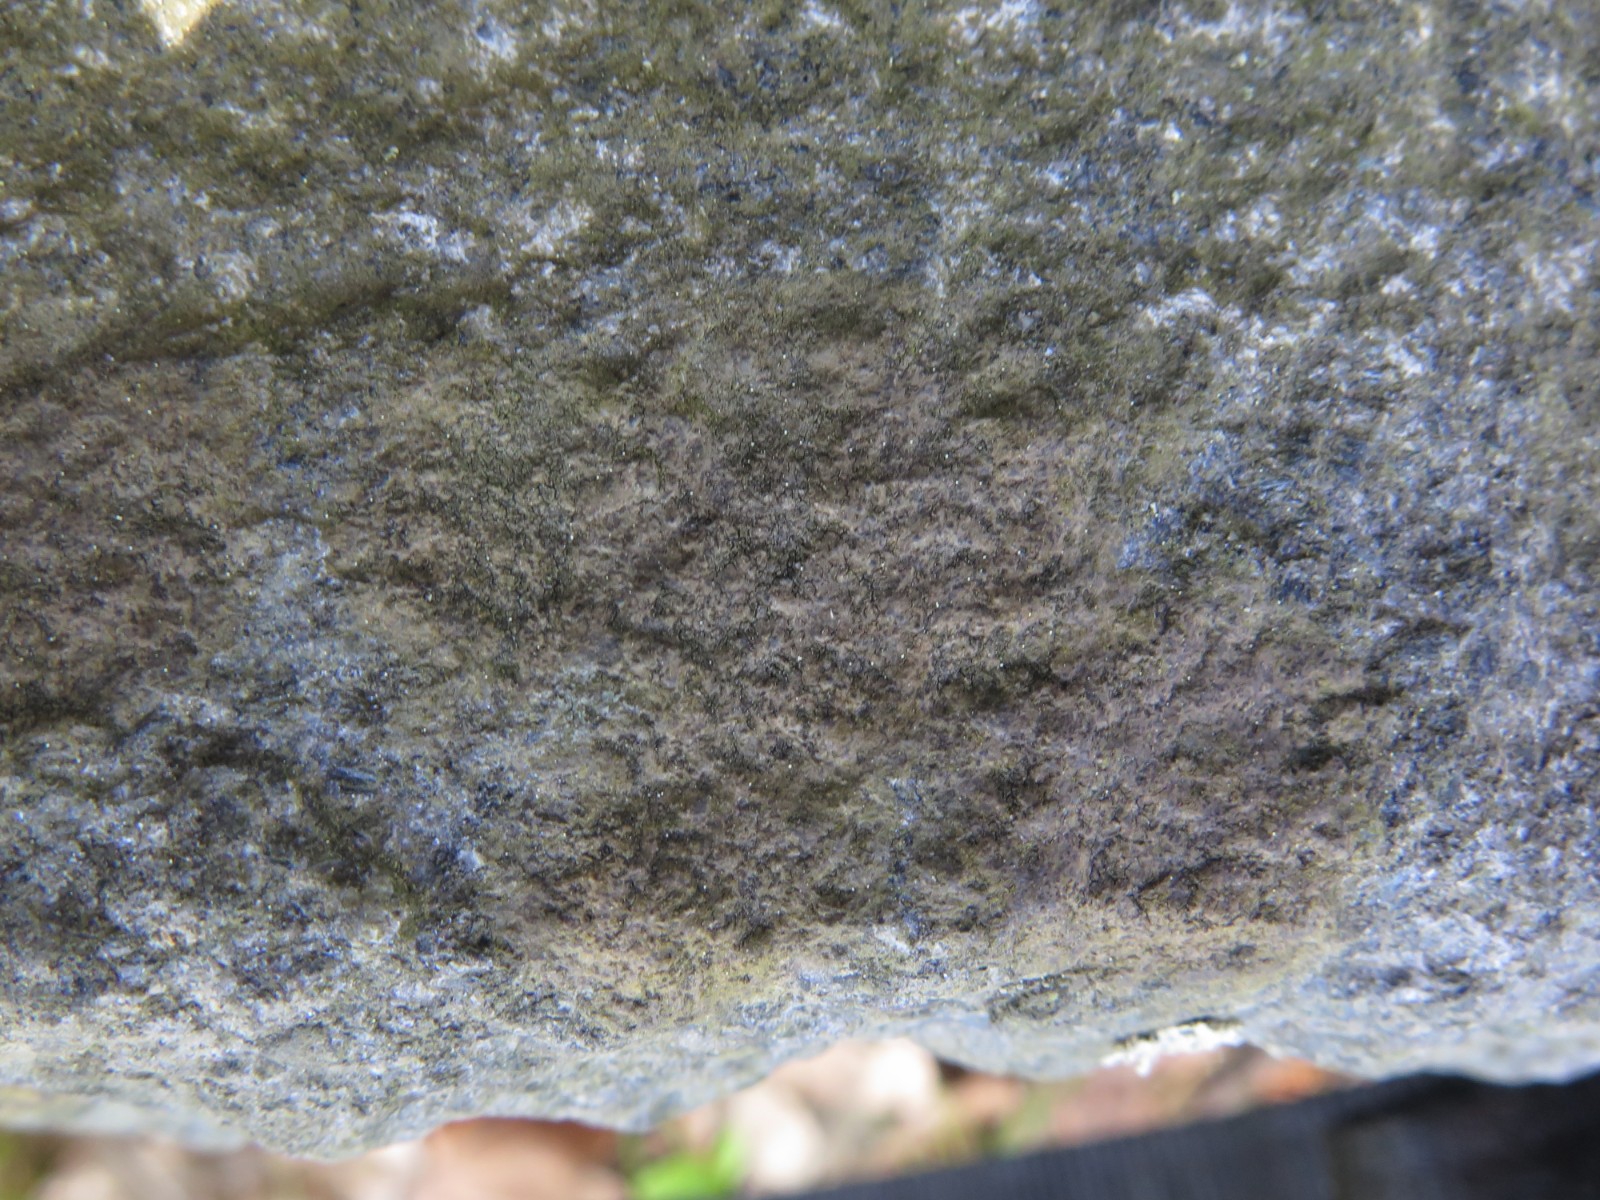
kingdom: Fungi
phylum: Ascomycota
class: Lecanoromycetes
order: Acarosporales
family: Acarosporaceae
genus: Acarospora
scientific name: Acarospora fuscata
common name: brun småsporelav
